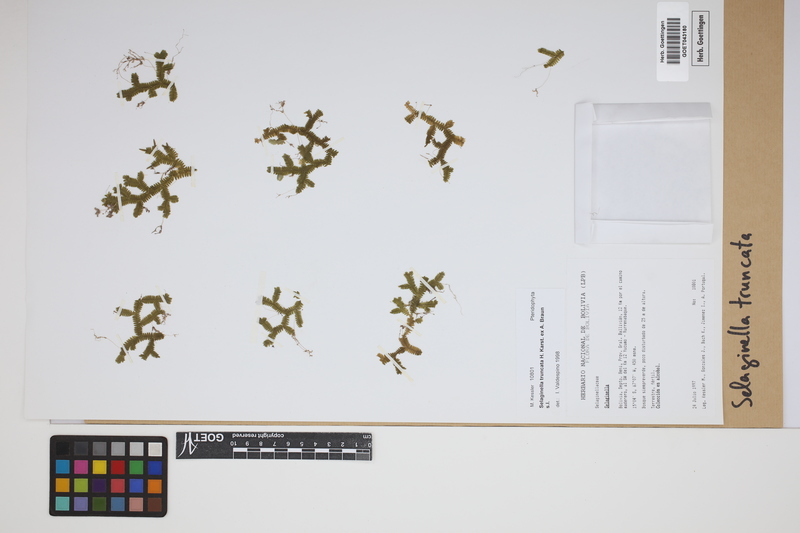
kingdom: Plantae
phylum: Tracheophyta
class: Lycopodiopsida
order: Selaginellales
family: Selaginellaceae
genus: Selaginella
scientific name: Selaginella truncata
